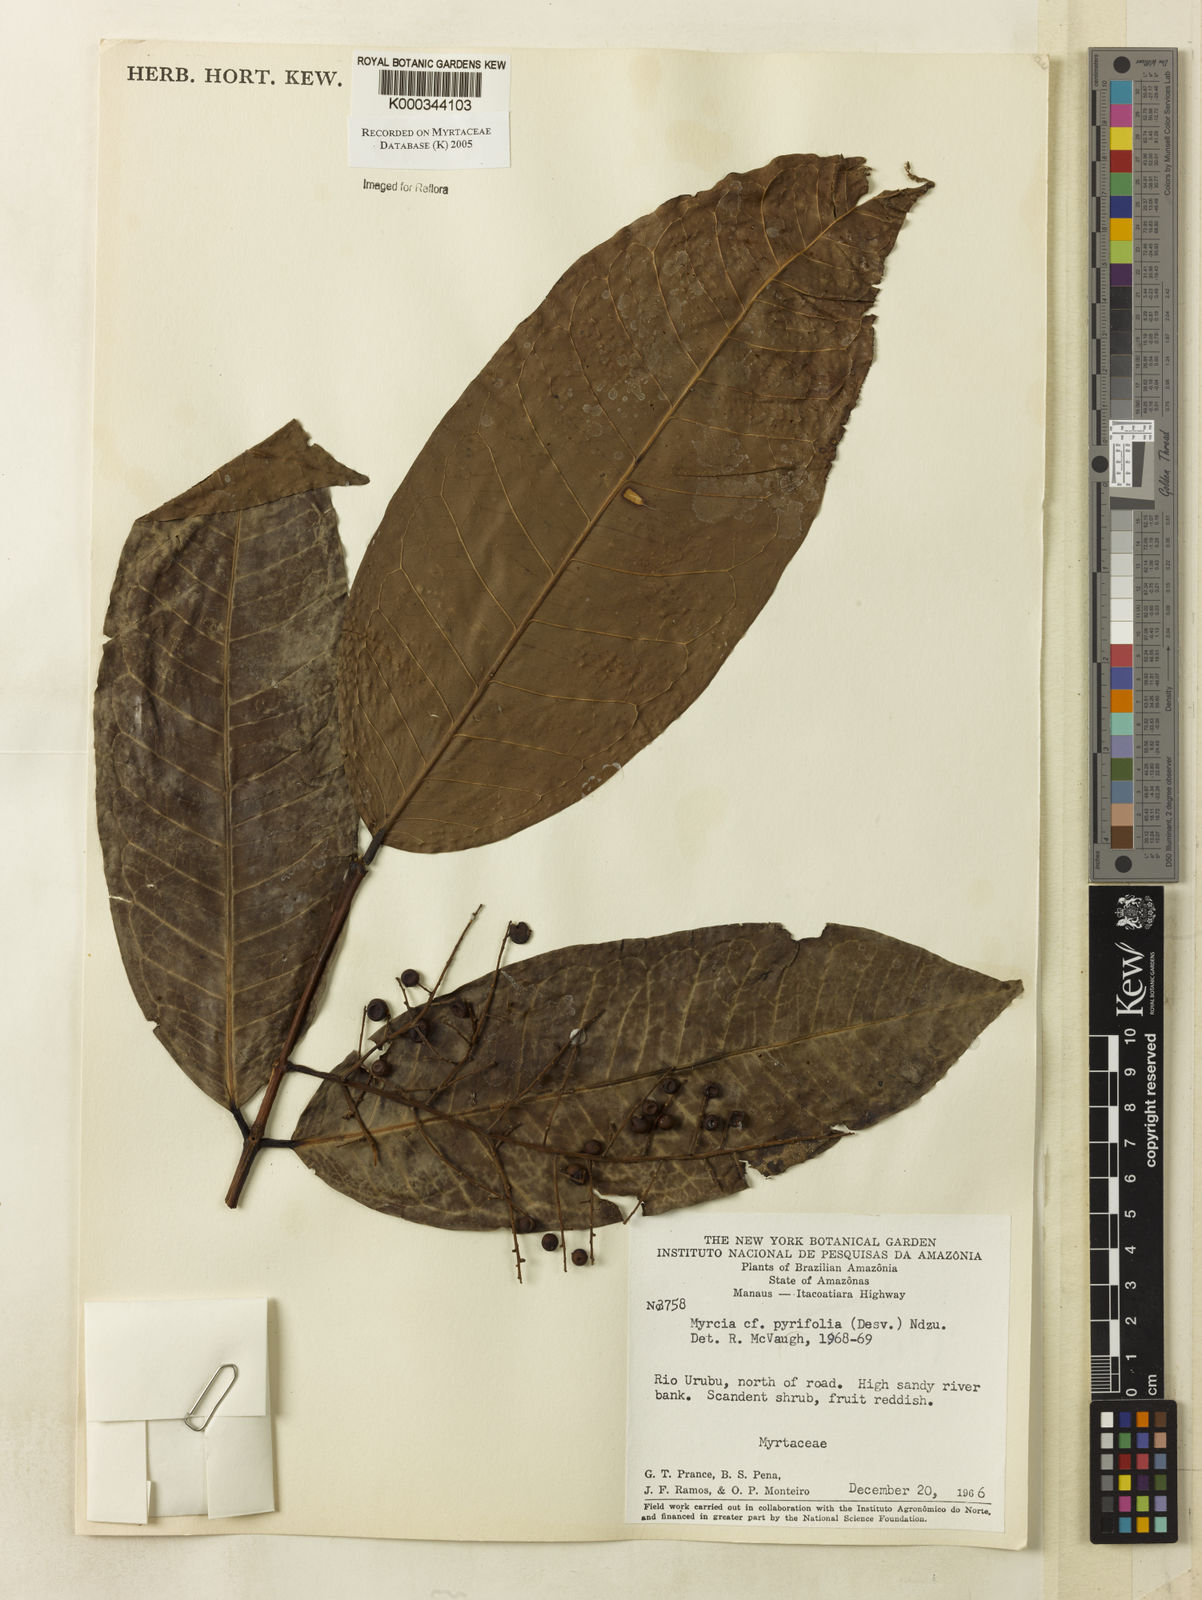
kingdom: Plantae
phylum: Tracheophyta
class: Magnoliopsida
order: Myrtales
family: Myrtaceae
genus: Myrcia
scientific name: Myrcia pyrifolia
